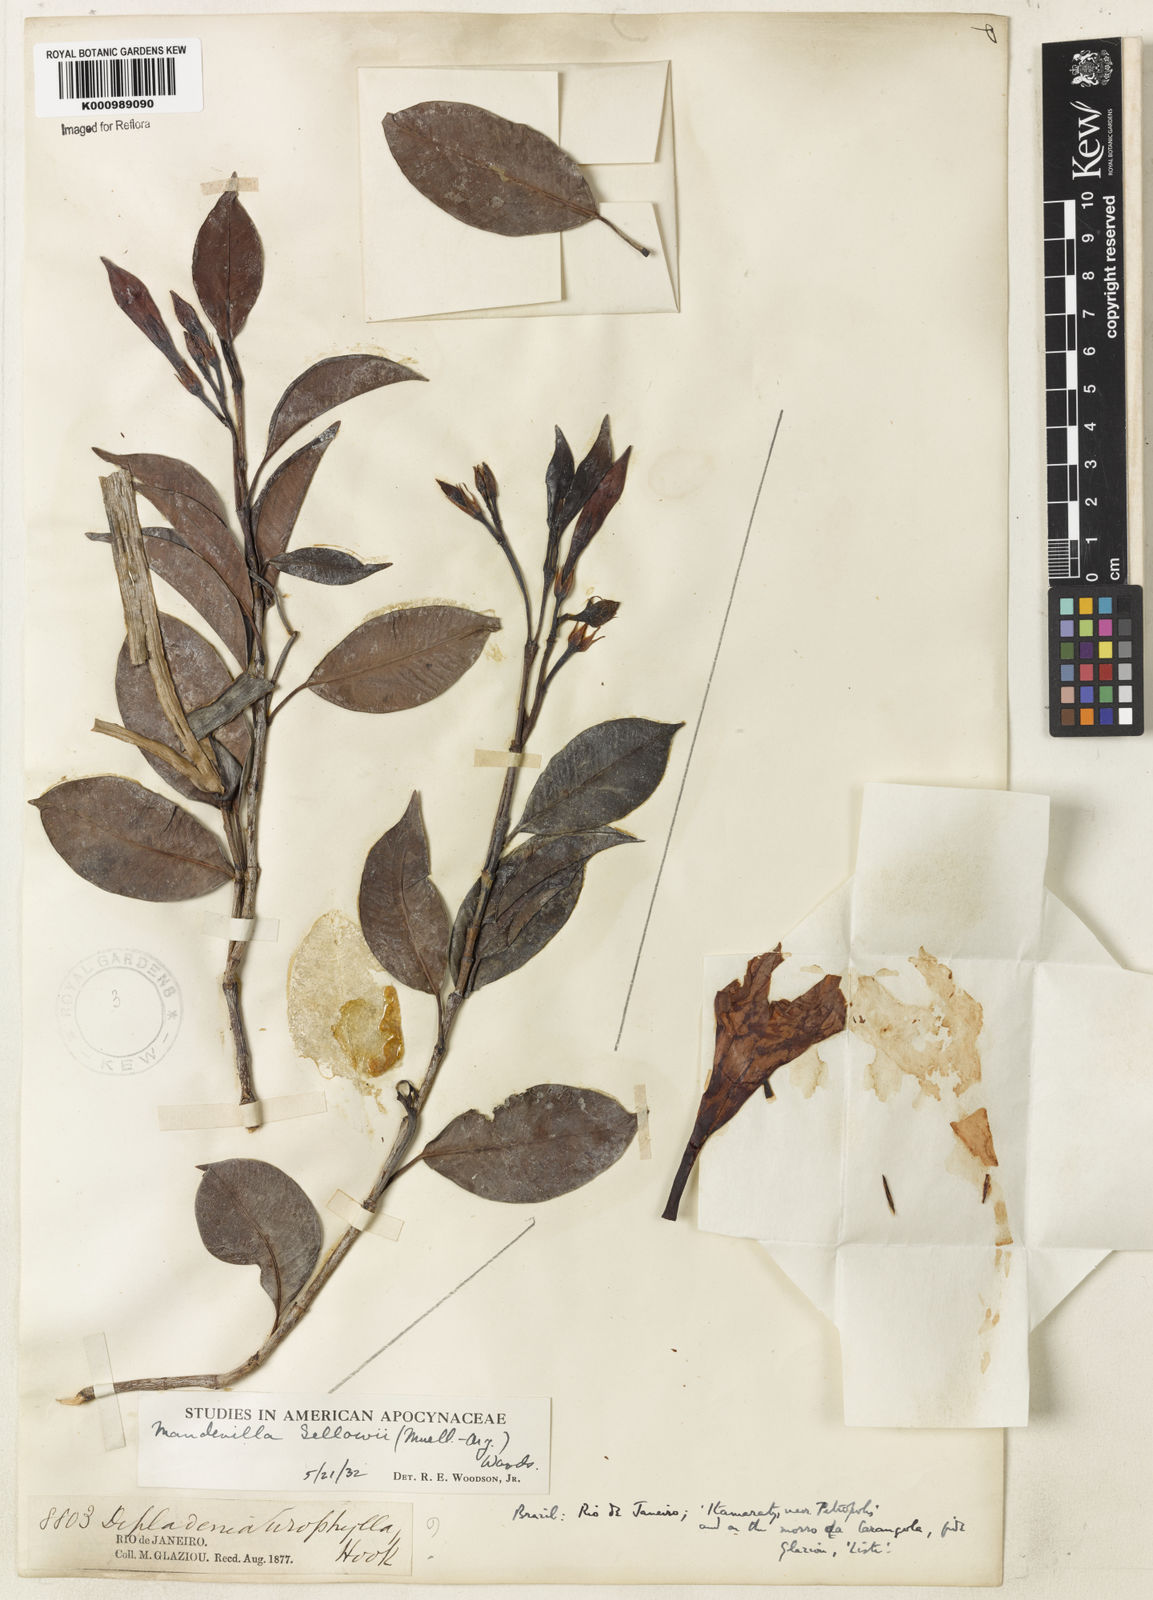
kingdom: Plantae
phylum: Tracheophyta
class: Magnoliopsida
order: Gentianales
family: Apocynaceae
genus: Mandevilla
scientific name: Mandevilla
